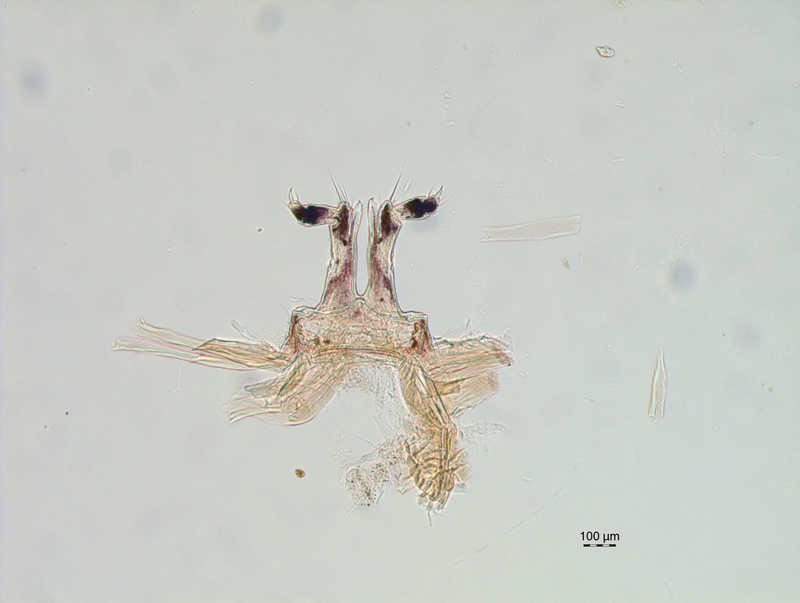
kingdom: Animalia
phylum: Arthropoda
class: Diplopoda
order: Chordeumatida
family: Chordeumatidae
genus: Chordeuma
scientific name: Chordeuma sylvestre
